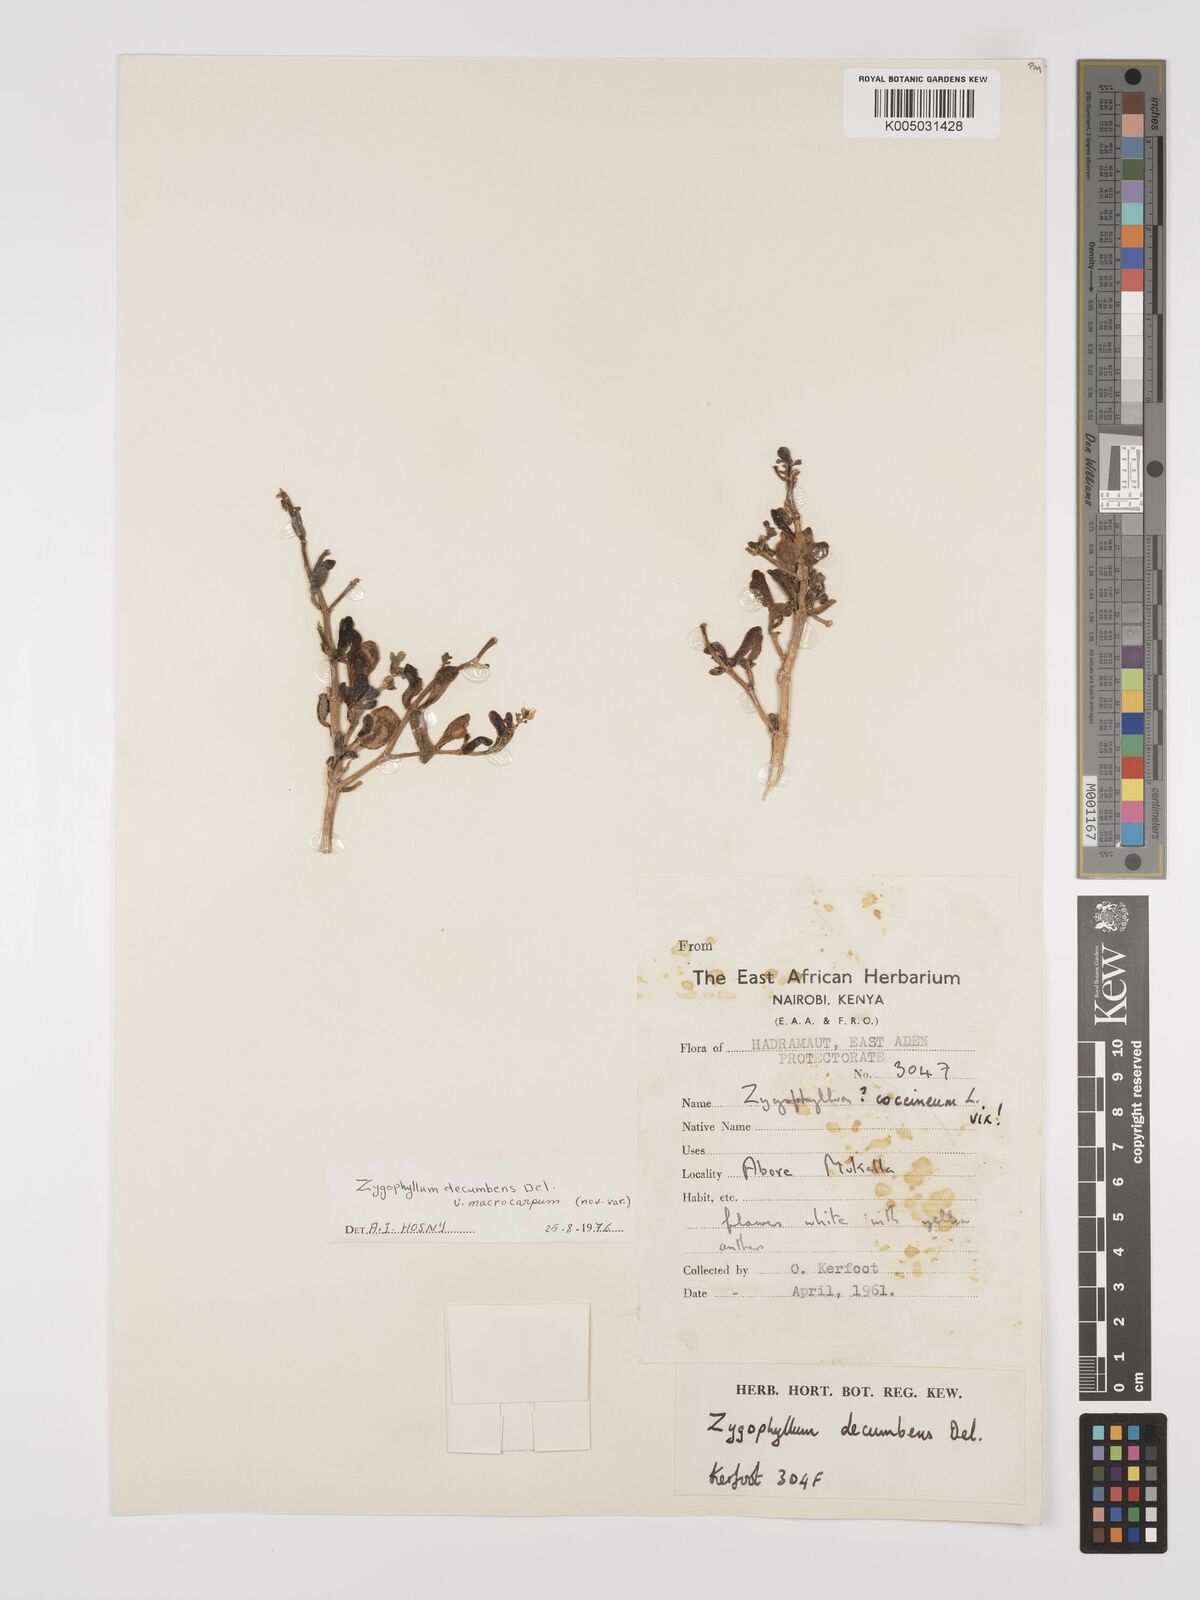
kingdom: Plantae
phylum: Tracheophyta
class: Magnoliopsida
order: Zygophyllales
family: Zygophyllaceae
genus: Tetraena
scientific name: Tetraena decumbens
